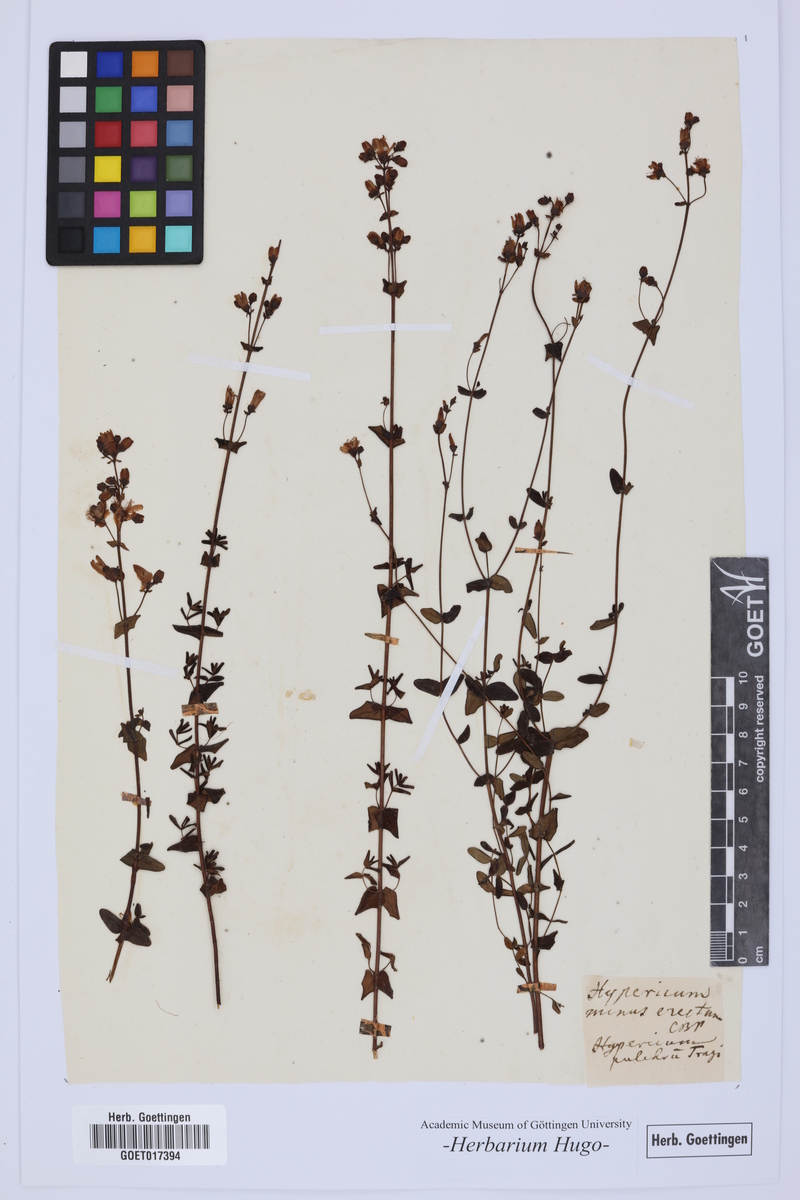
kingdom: Plantae
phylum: Tracheophyta
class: Magnoliopsida
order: Malpighiales
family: Hypericaceae
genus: Hypericum
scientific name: Hypericum pulchrum
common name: Slender st. john's-wort
